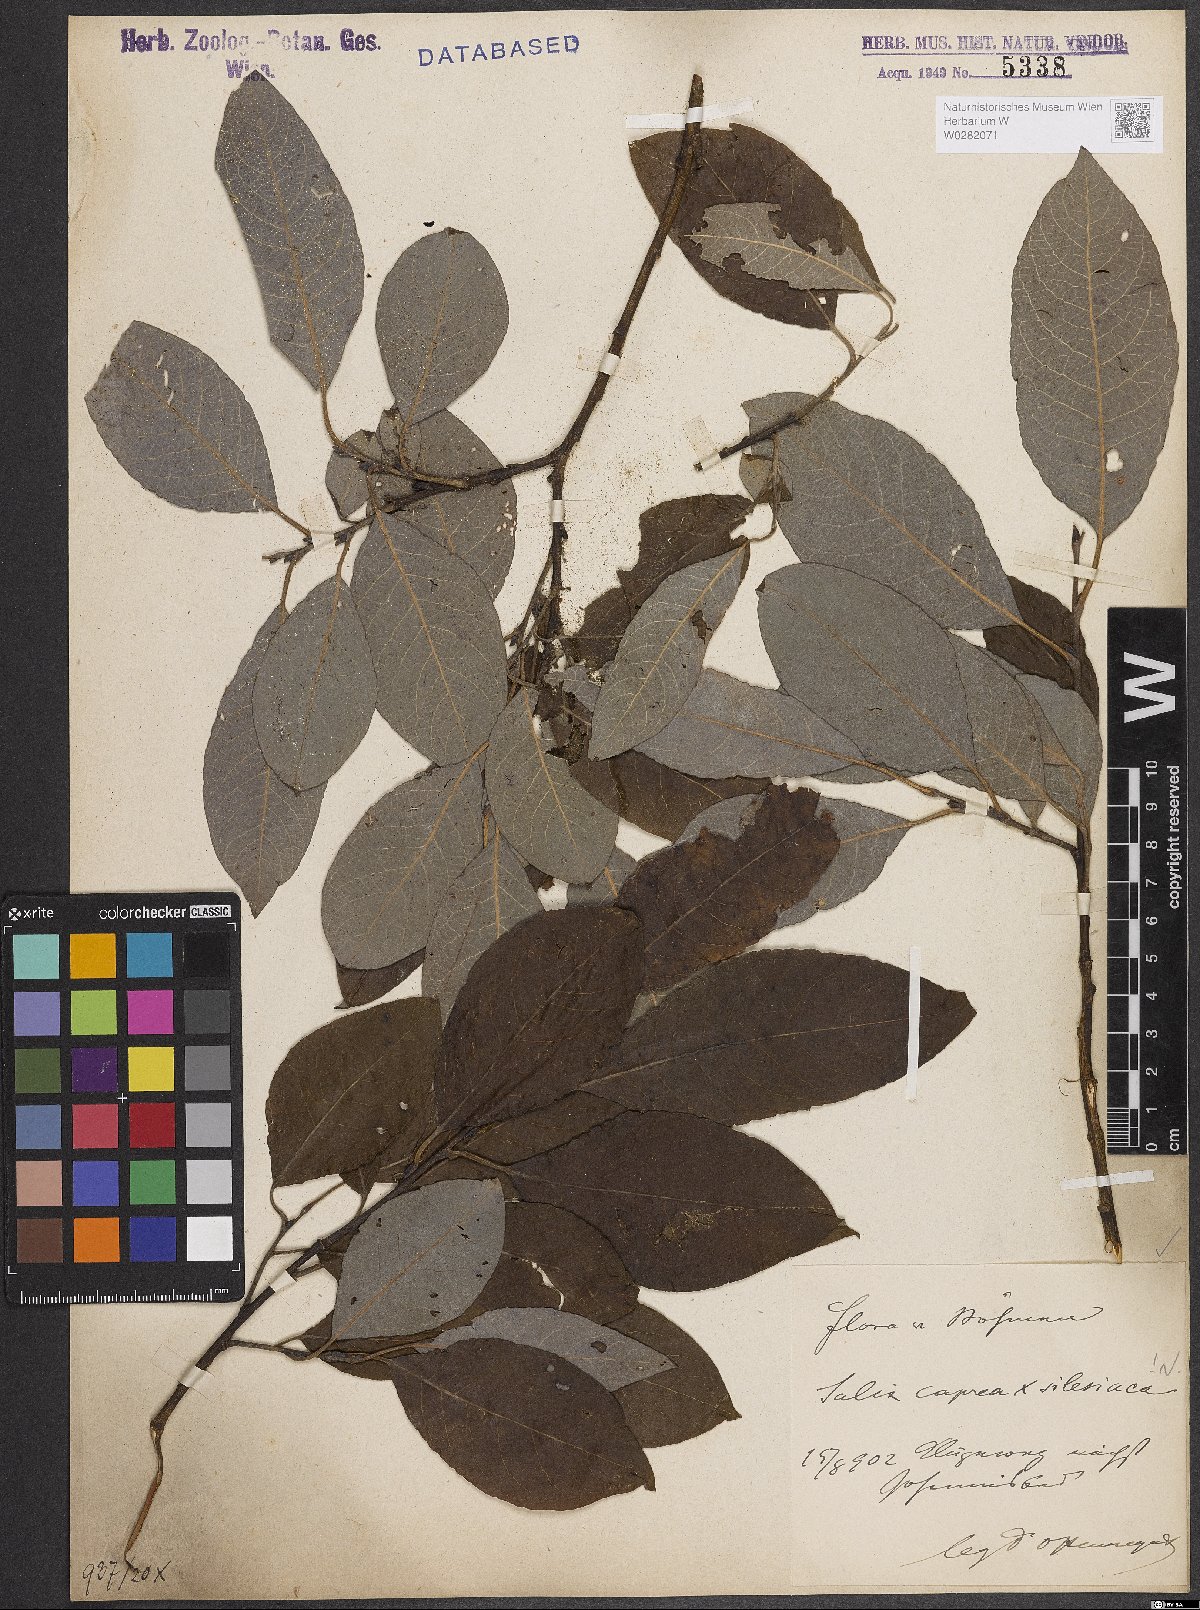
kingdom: Plantae
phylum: Tracheophyta
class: Magnoliopsida
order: Malpighiales
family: Salicaceae
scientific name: Salicaceae
